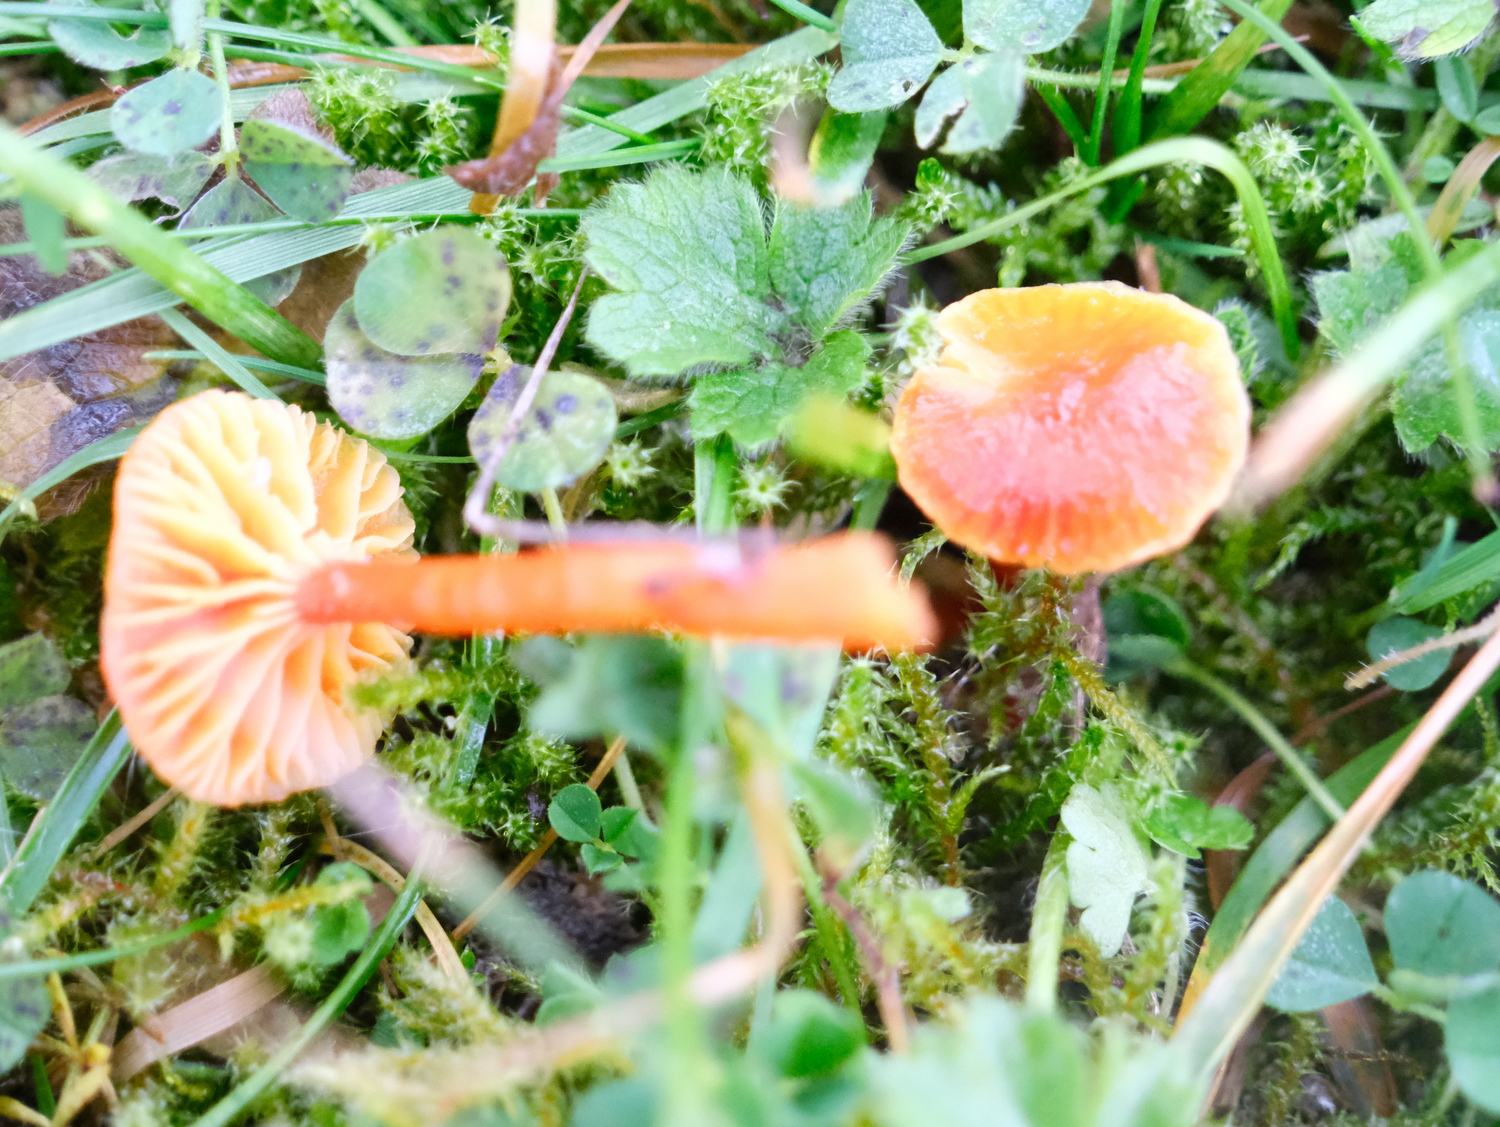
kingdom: Fungi
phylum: Basidiomycota
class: Agaricomycetes
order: Agaricales
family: Hygrophoraceae
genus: Hygrocybe
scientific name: Hygrocybe insipida
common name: liden vokshat
